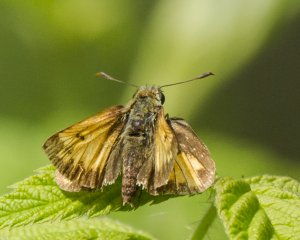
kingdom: Animalia
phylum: Arthropoda
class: Insecta
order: Lepidoptera
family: Hesperiidae
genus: Lon
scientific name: Lon hobomok
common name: Hobomok Skipper
